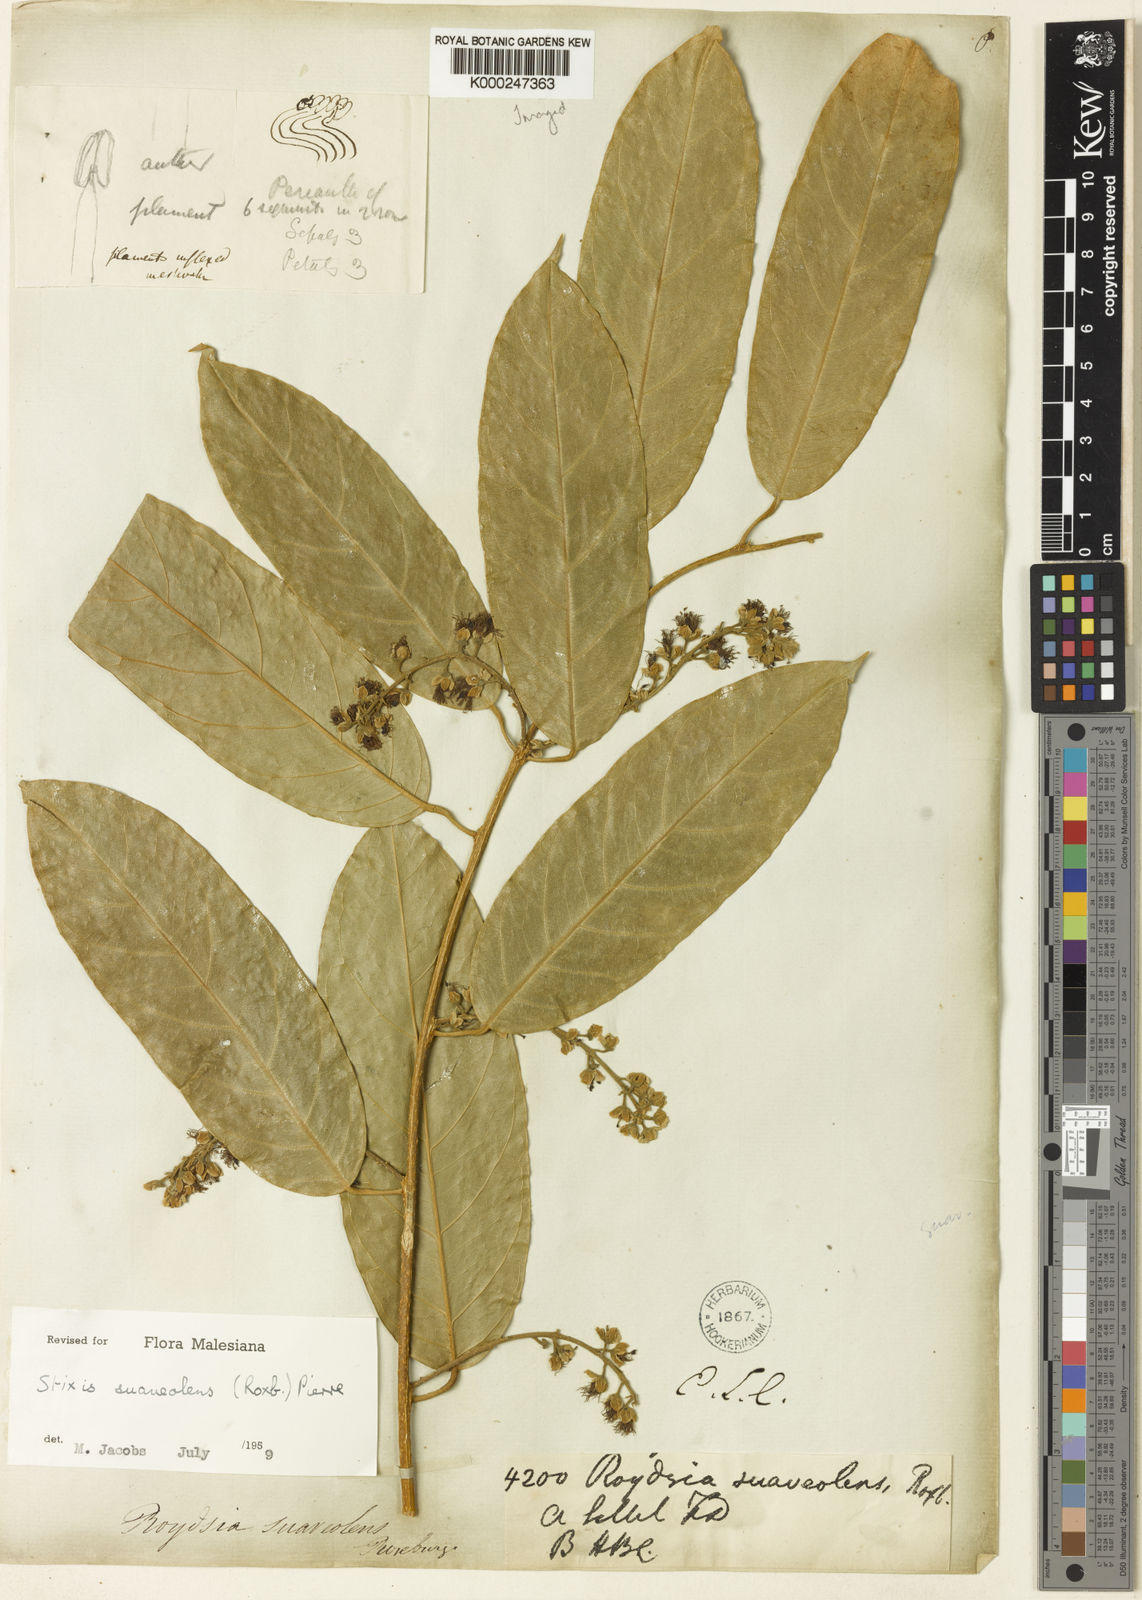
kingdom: Plantae
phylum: Tracheophyta
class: Magnoliopsida
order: Brassicales
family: Stixaceae
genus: Stixis
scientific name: Stixis
